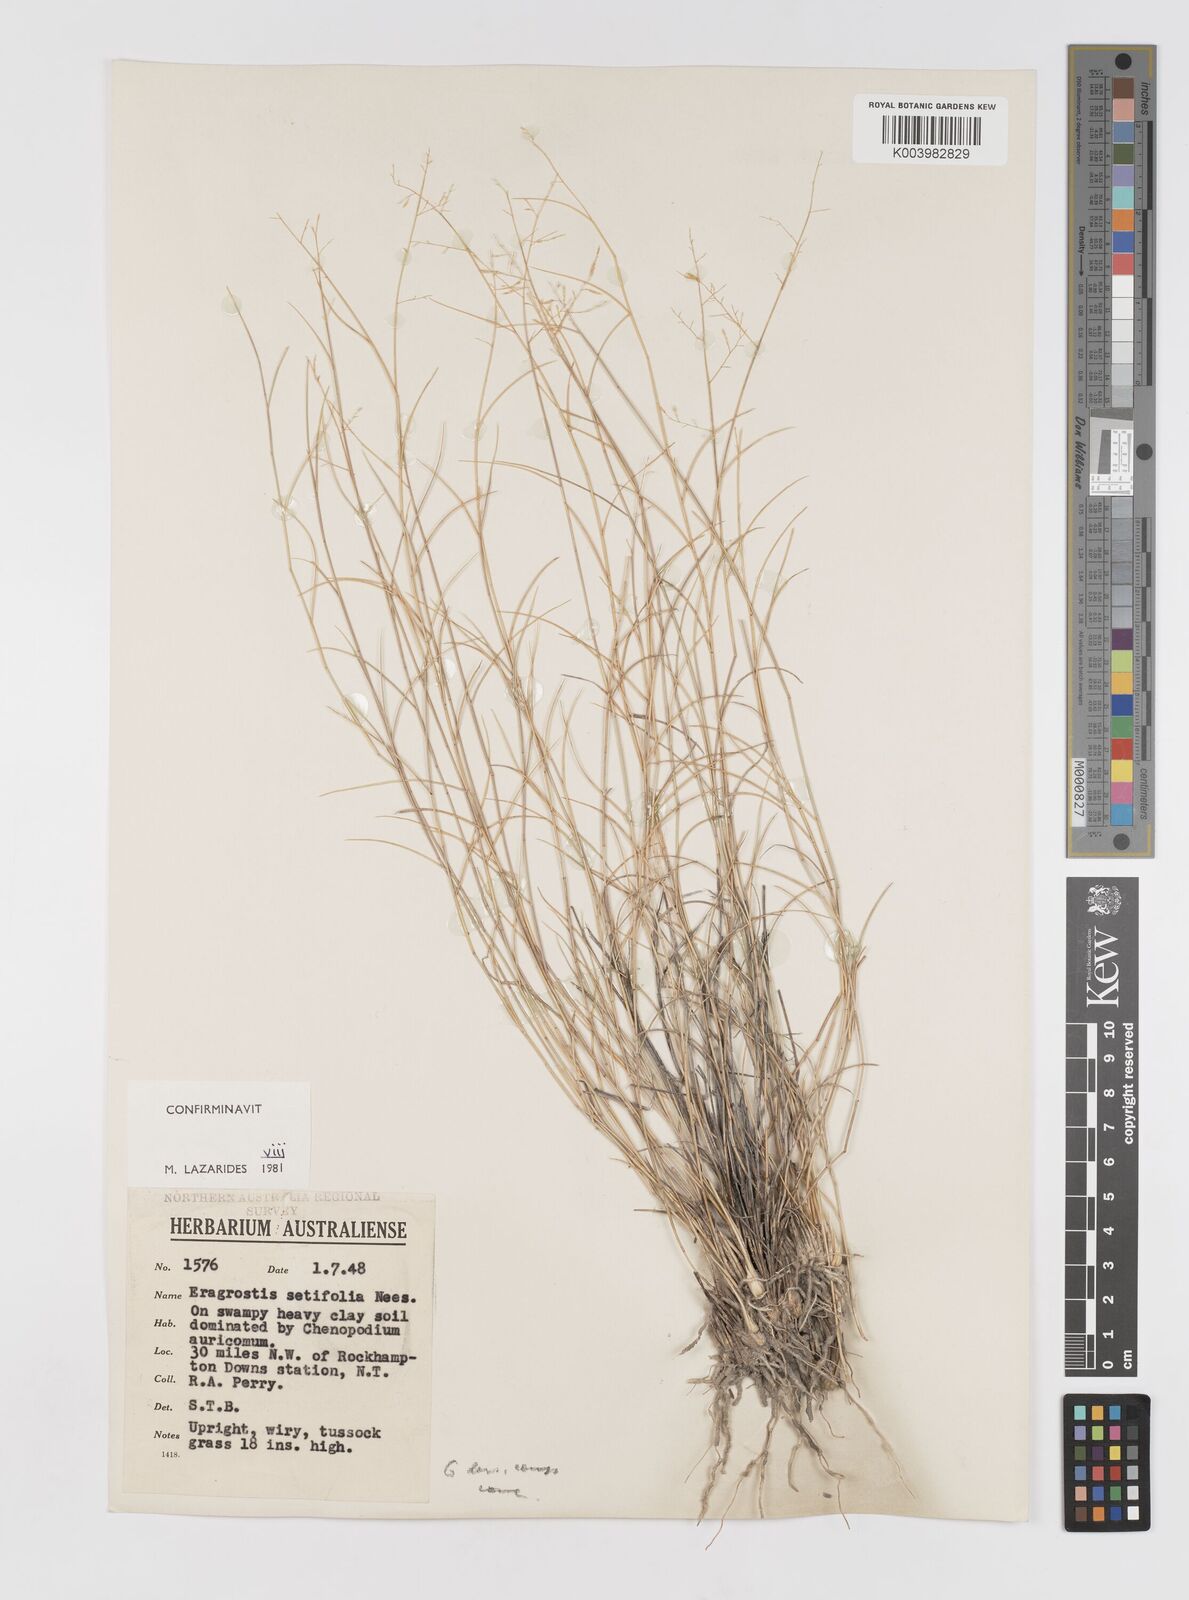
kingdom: Plantae
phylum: Tracheophyta
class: Liliopsida
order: Poales
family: Poaceae
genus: Eragrostis
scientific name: Eragrostis setifolia
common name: Bristleleaf lovegrass
